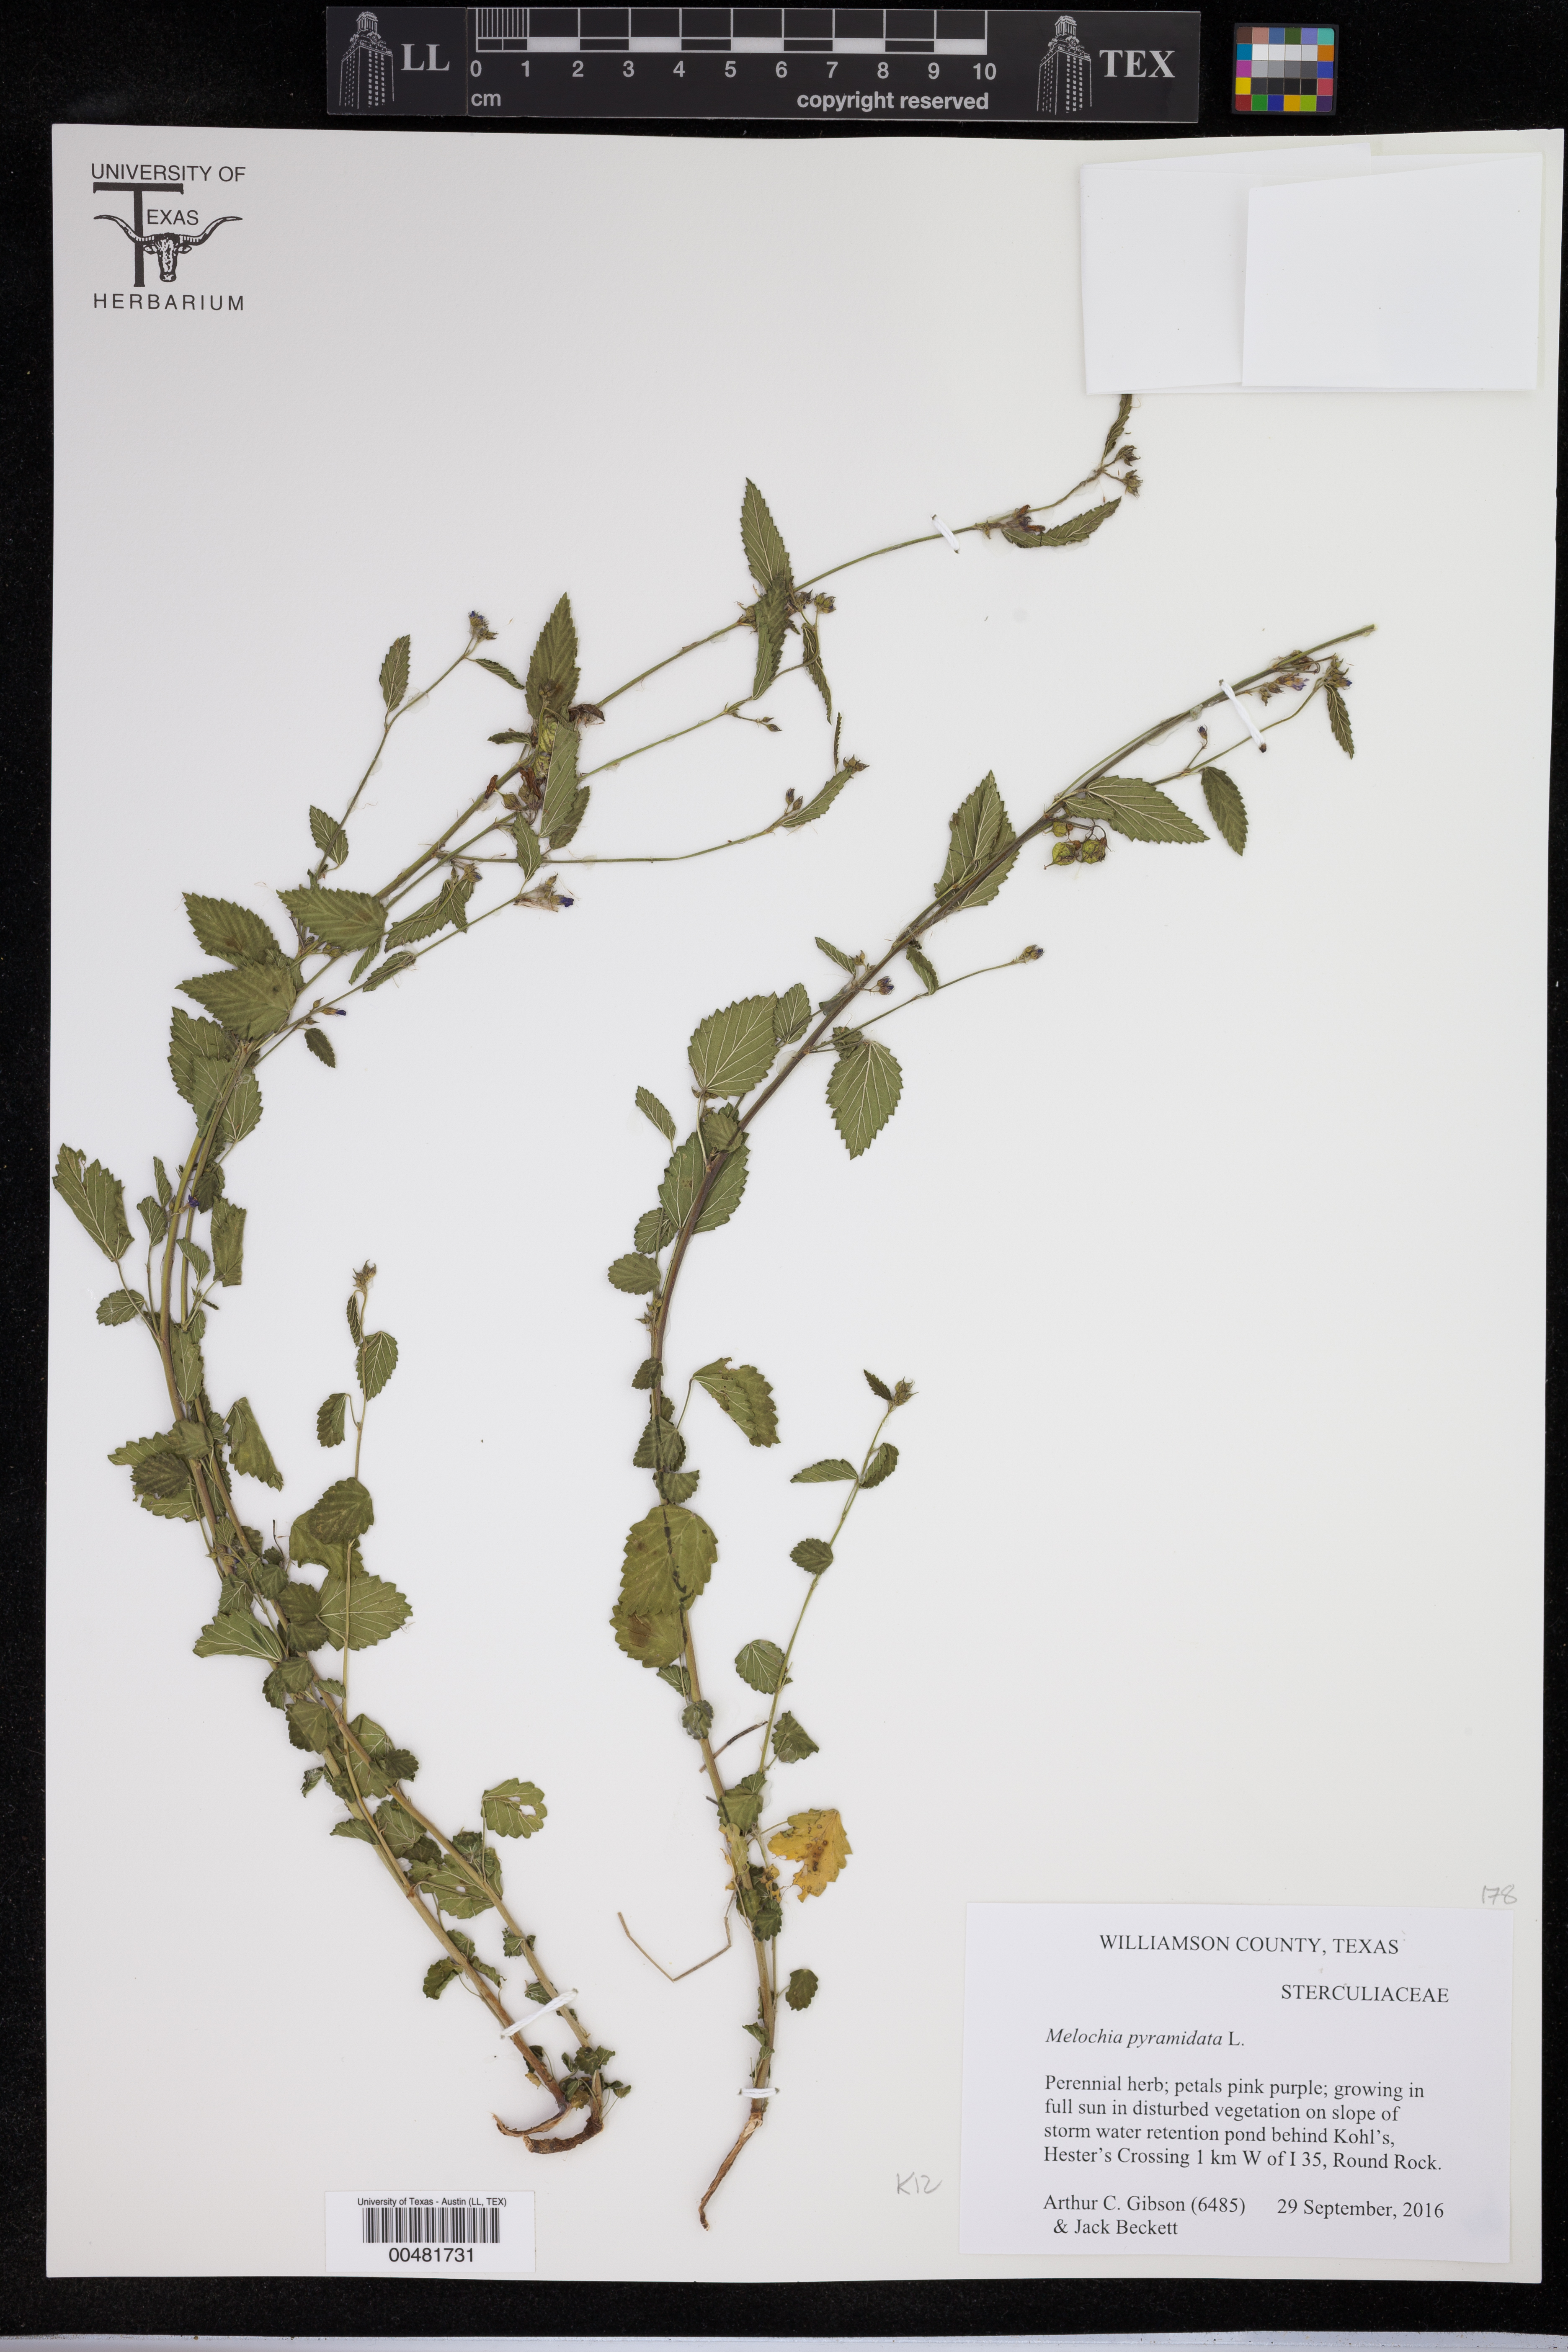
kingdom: Plantae
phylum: Tracheophyta
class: Magnoliopsida
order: Malvales
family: Malvaceae
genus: Melochia
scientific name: Melochia pyramidata
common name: Pyramidflower
